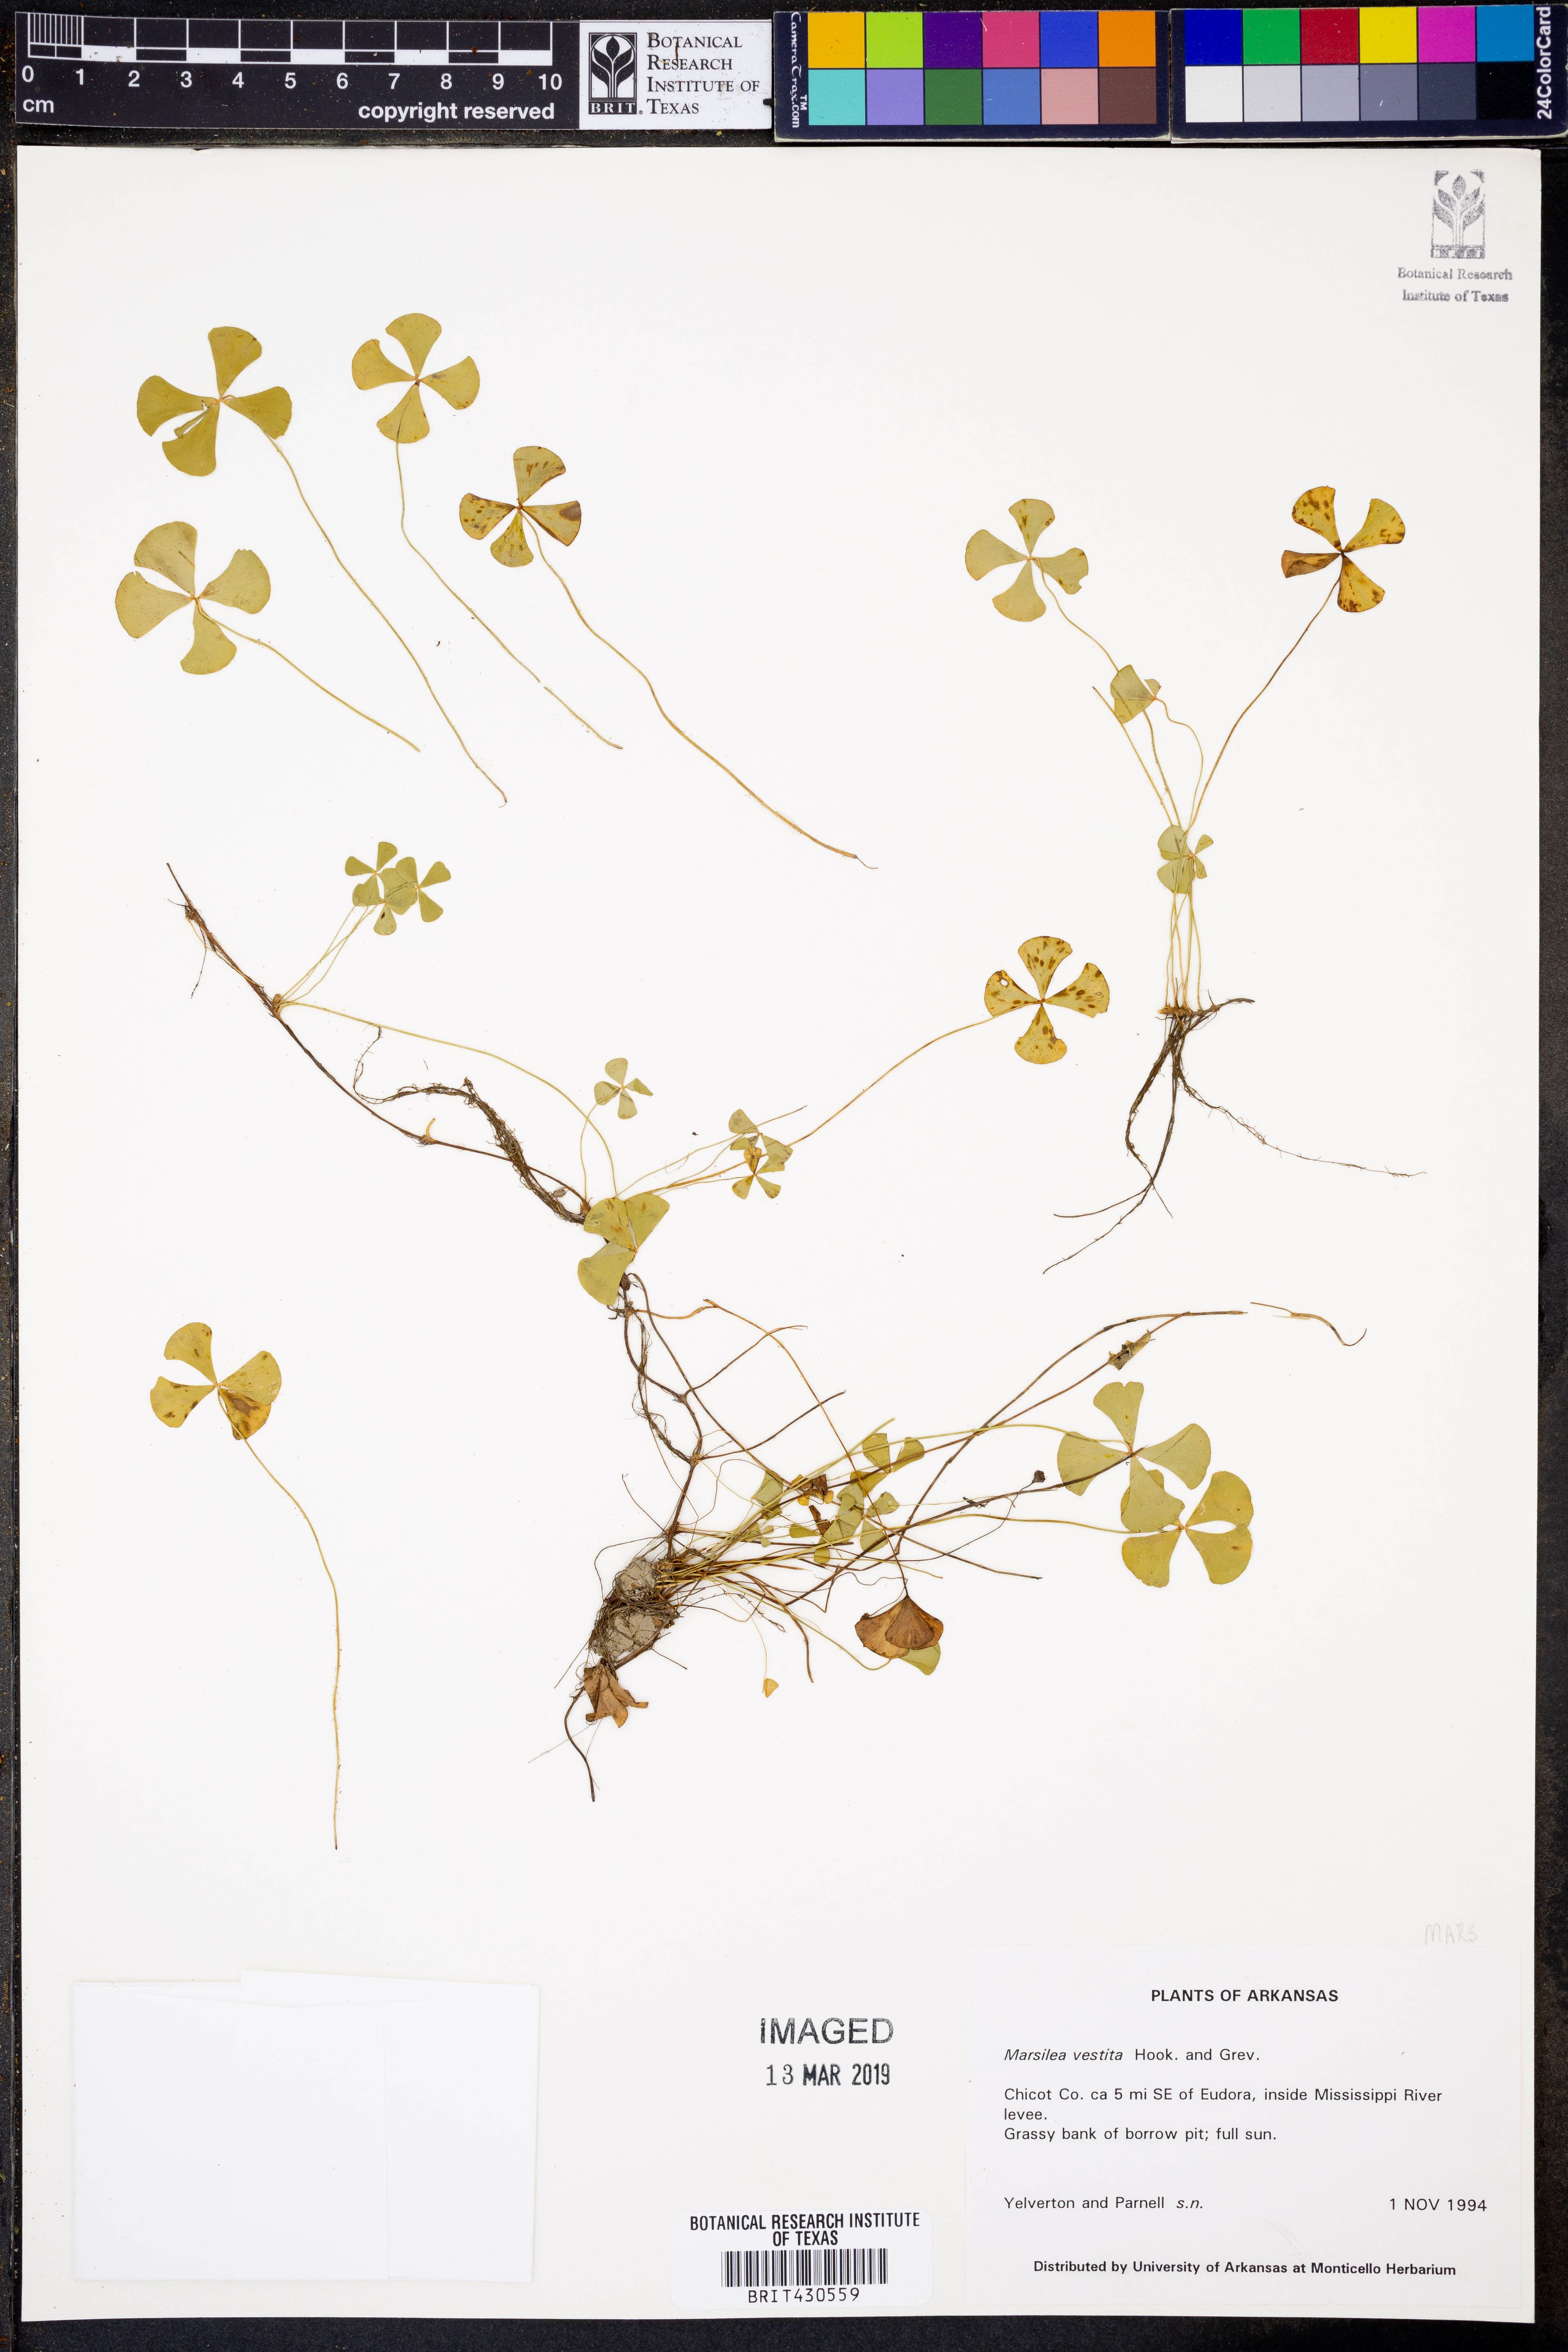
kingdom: Plantae
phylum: Tracheophyta
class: Polypodiopsida
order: Salviniales
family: Marsileaceae
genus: Marsilea
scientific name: Marsilea vestita
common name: Hooked-pepperwort
